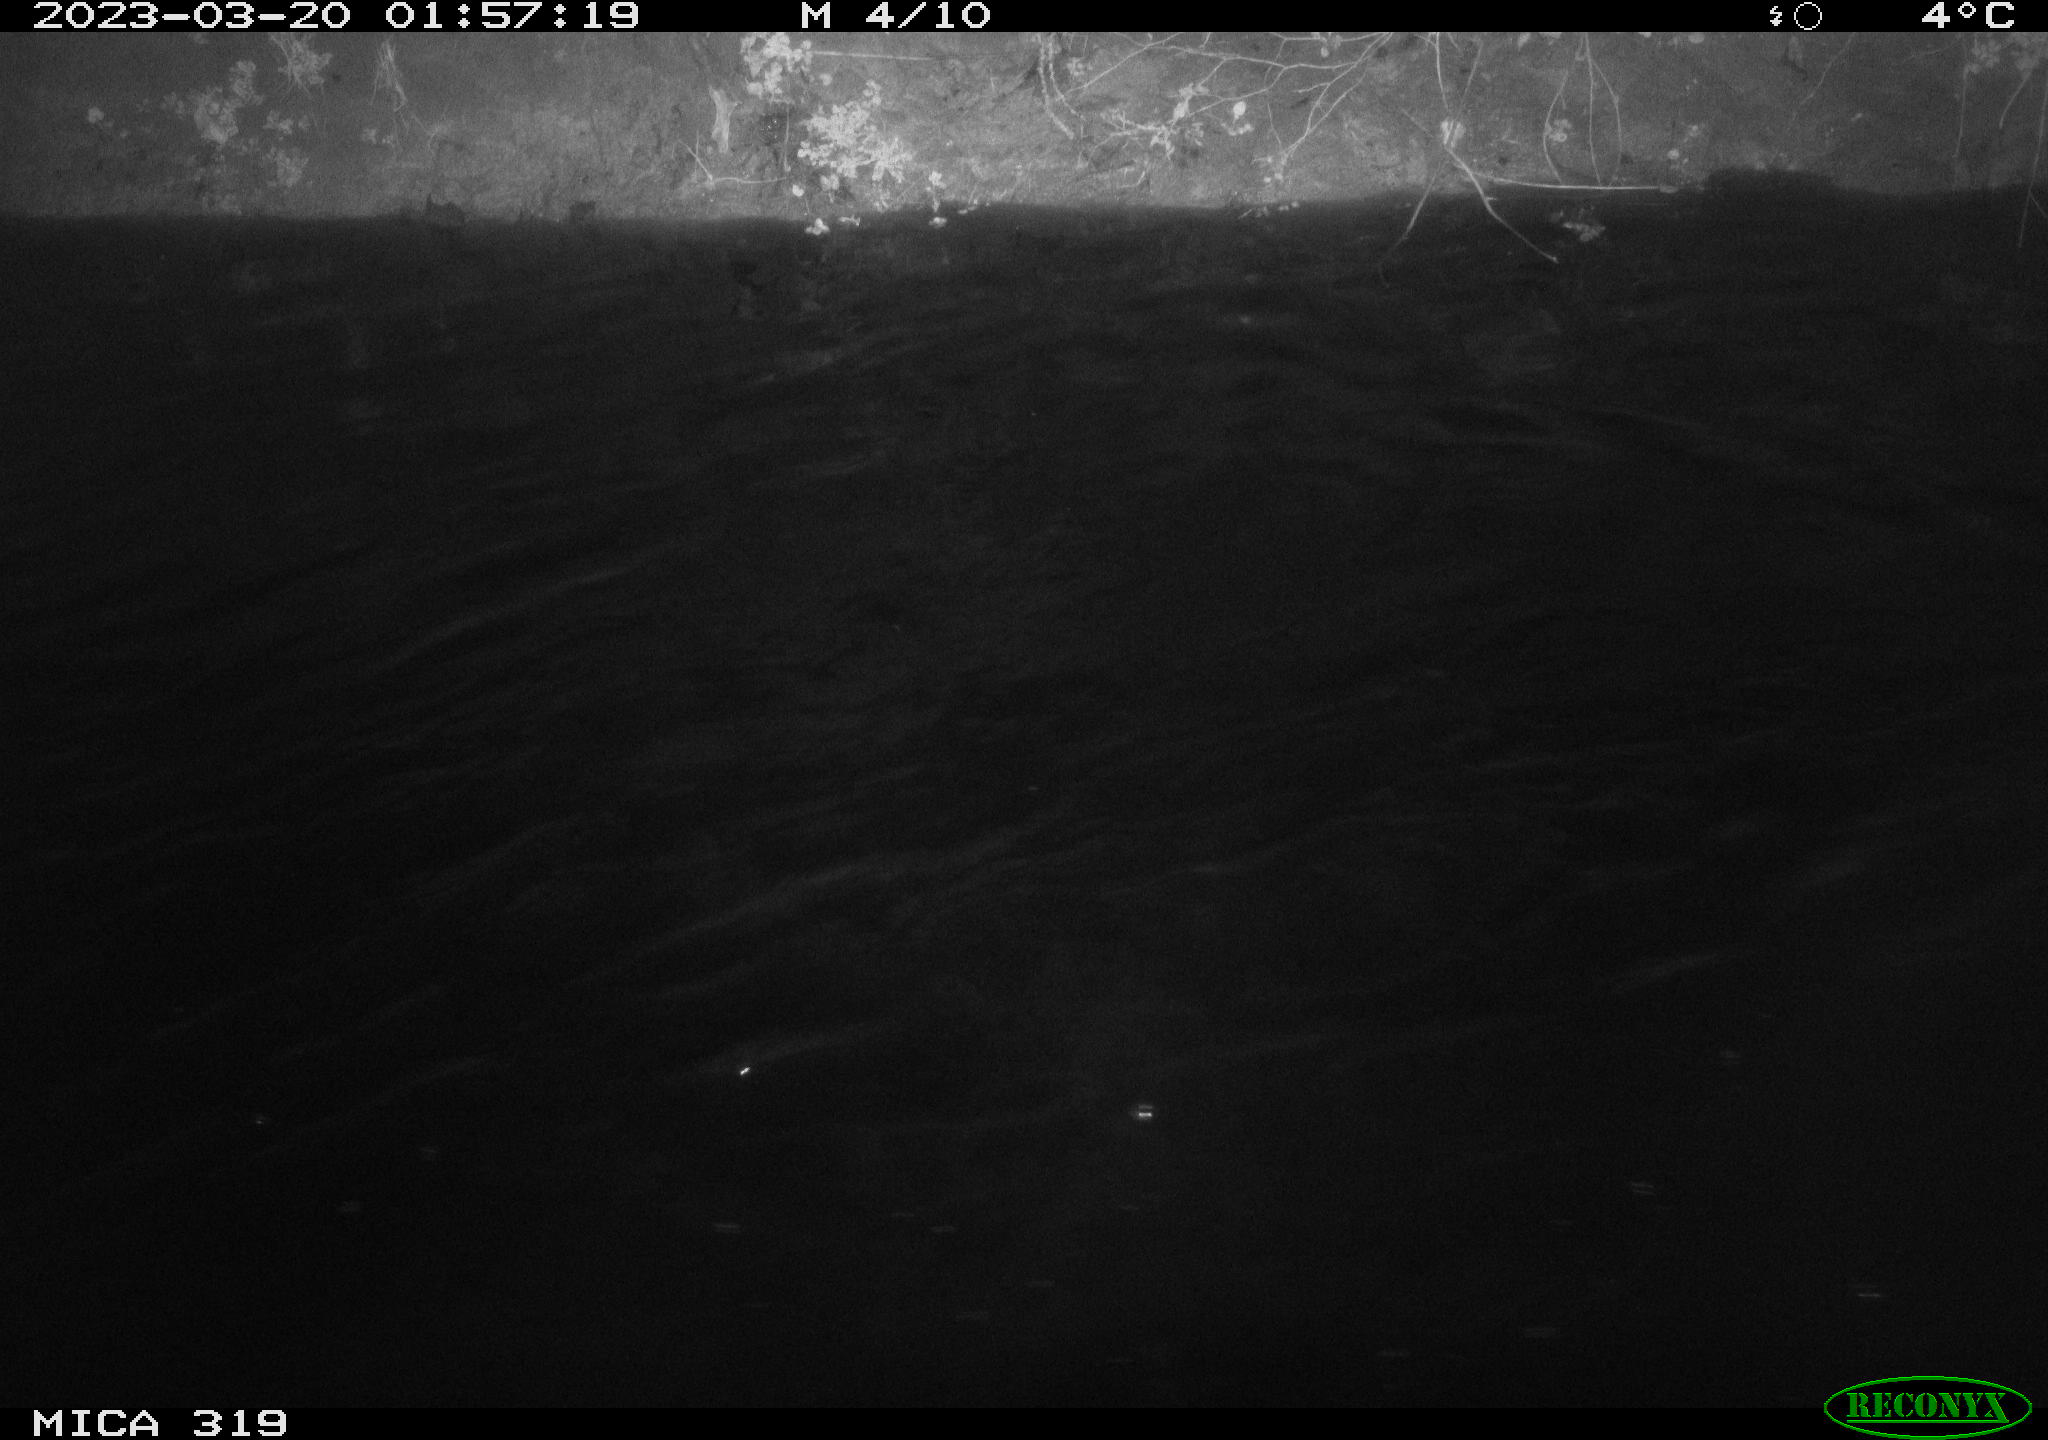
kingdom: Animalia
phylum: Chordata
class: Aves
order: Anseriformes
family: Anatidae
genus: Anas
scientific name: Anas
